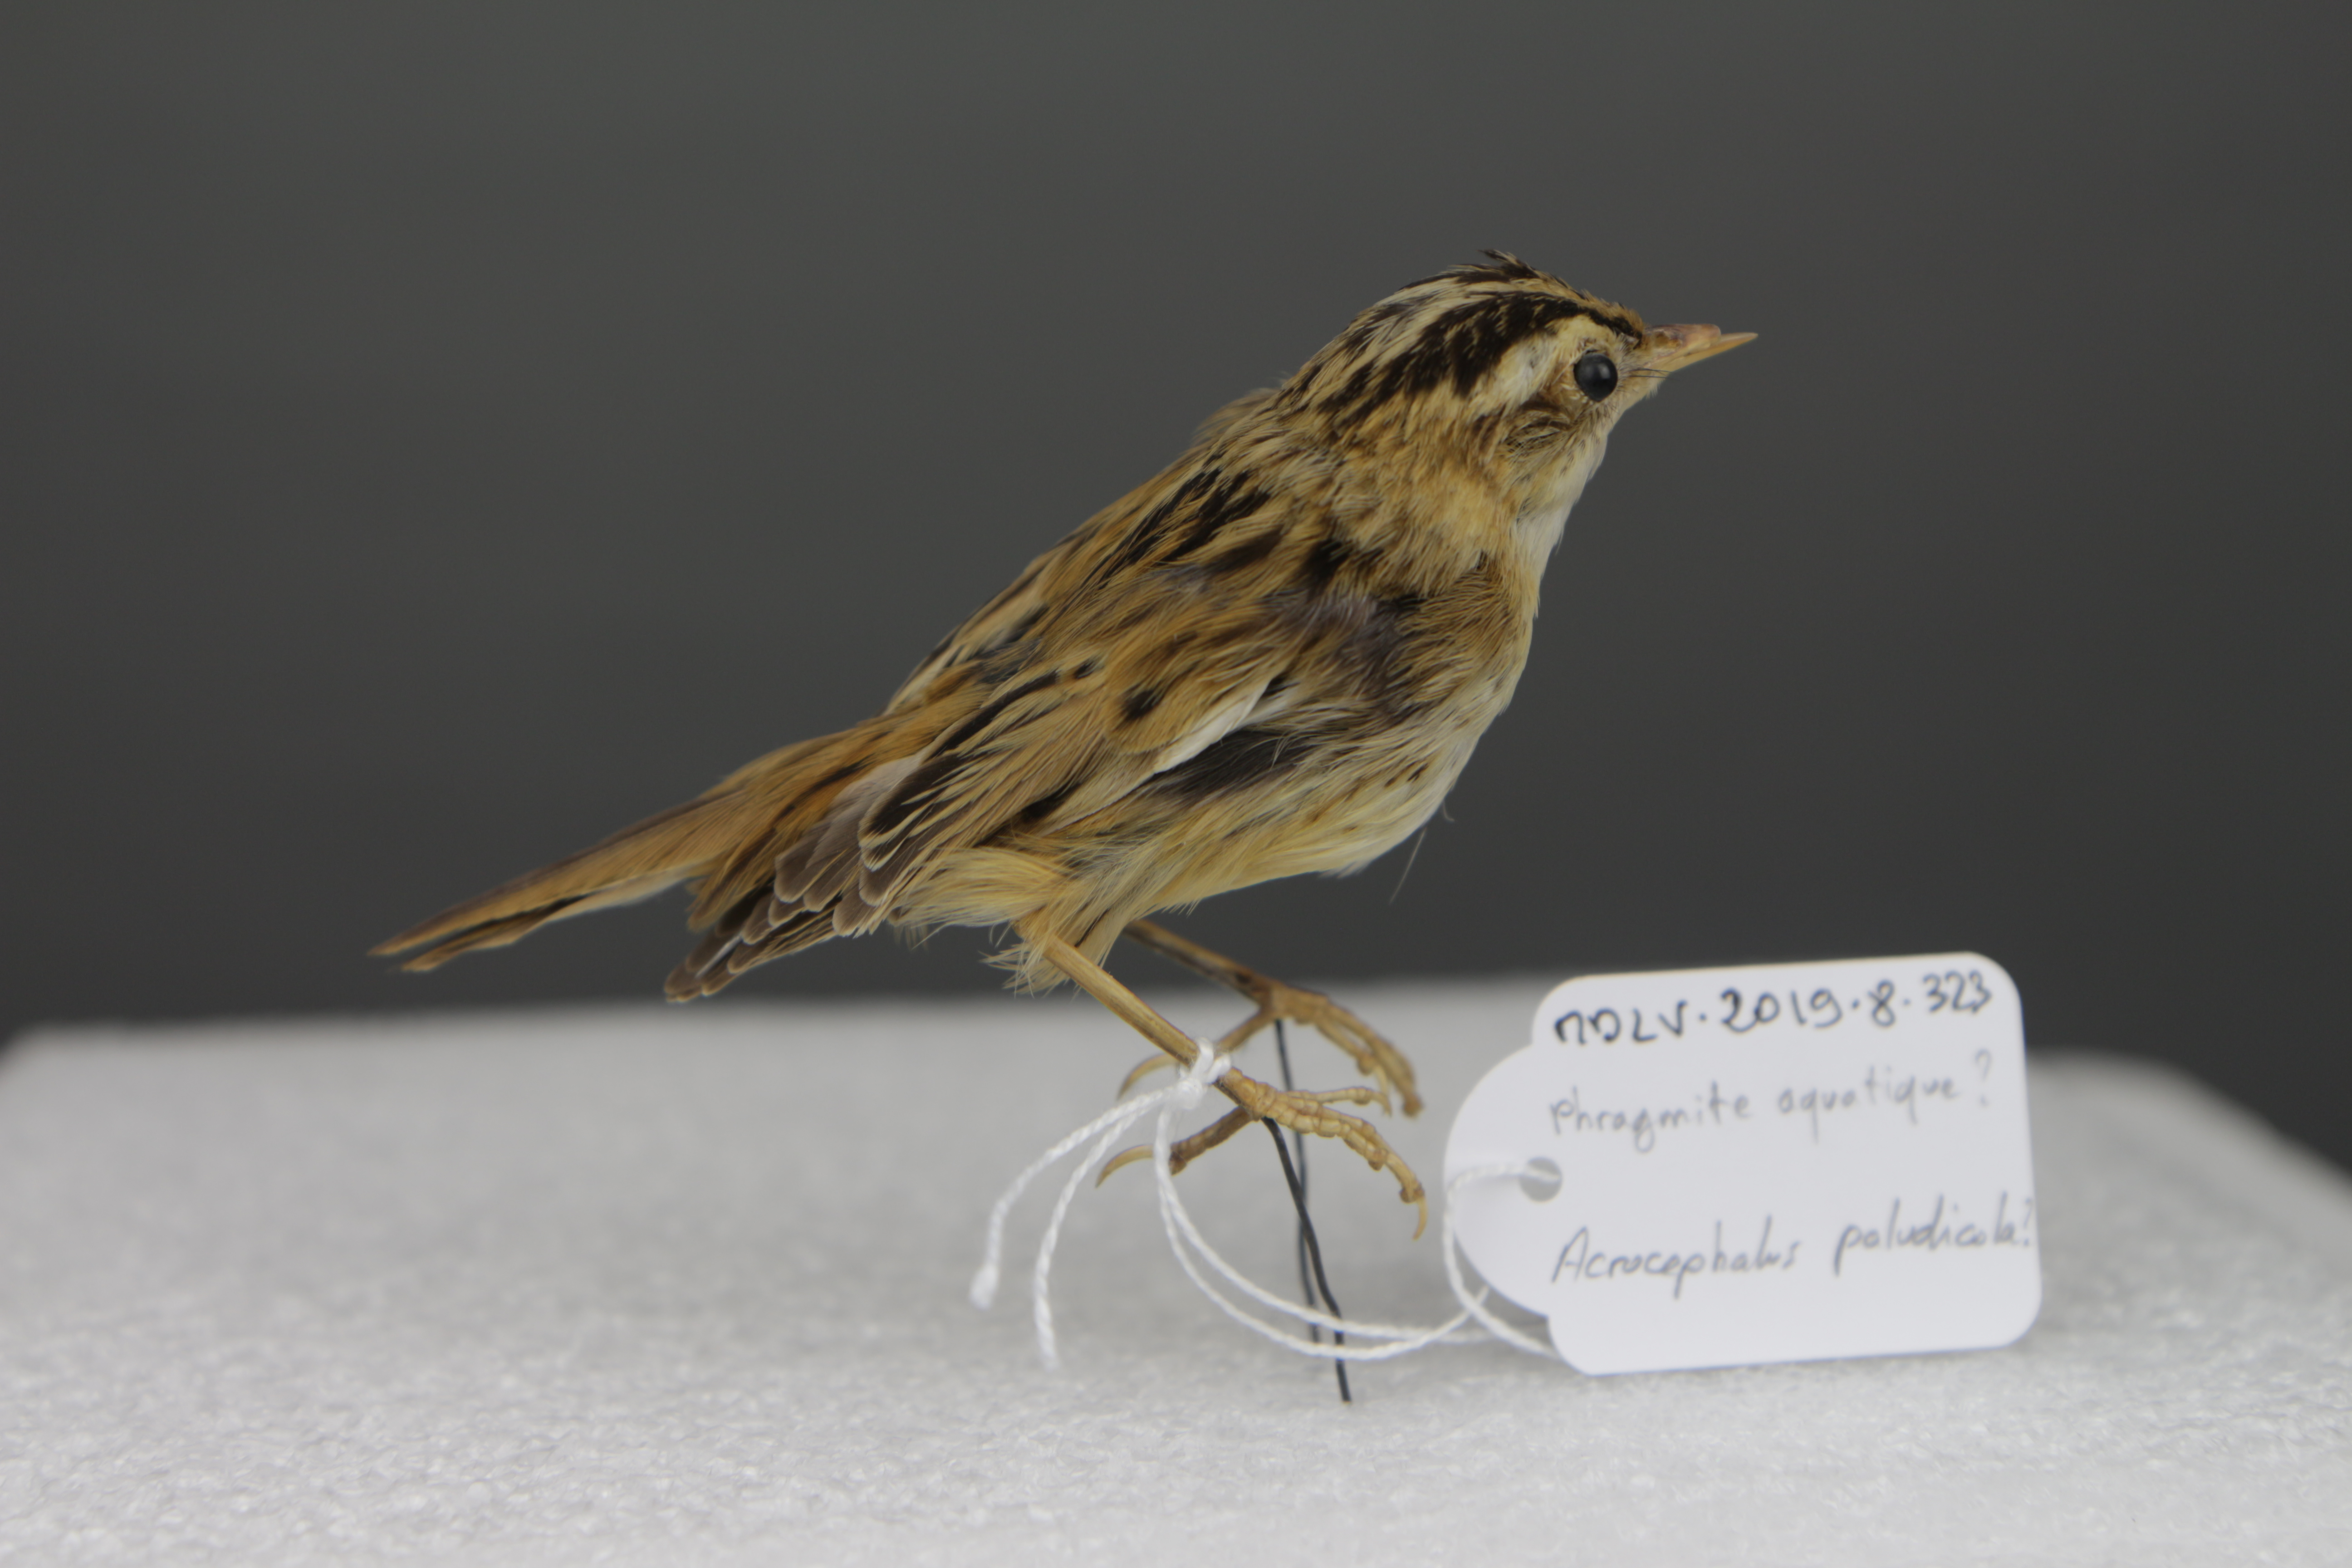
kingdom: Animalia
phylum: Chordata
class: Aves
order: Passeriformes
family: Acrocephalidae
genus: Acrocephalus
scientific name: Acrocephalus paludicola
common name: Aquatic warbler
